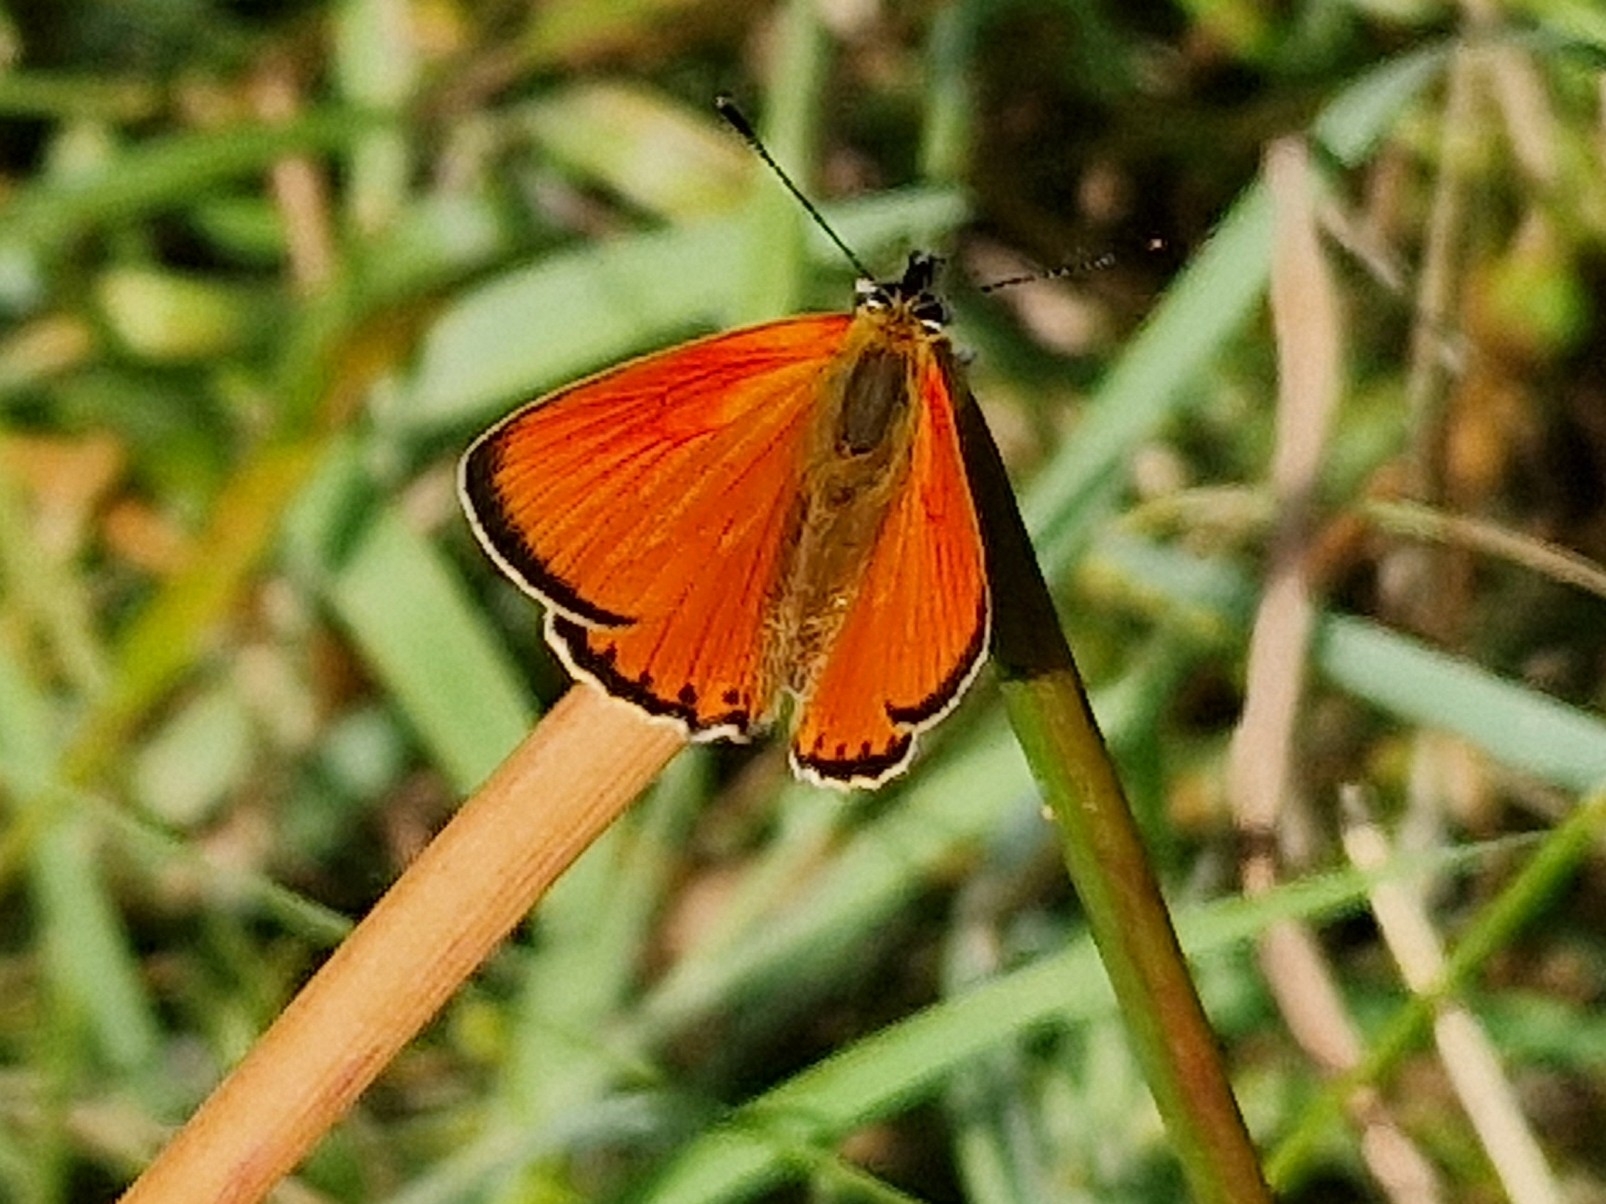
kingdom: Animalia
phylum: Arthropoda
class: Insecta
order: Lepidoptera
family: Lycaenidae
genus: Lycaena
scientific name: Lycaena virgaureae
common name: Dukatsommerfugl
